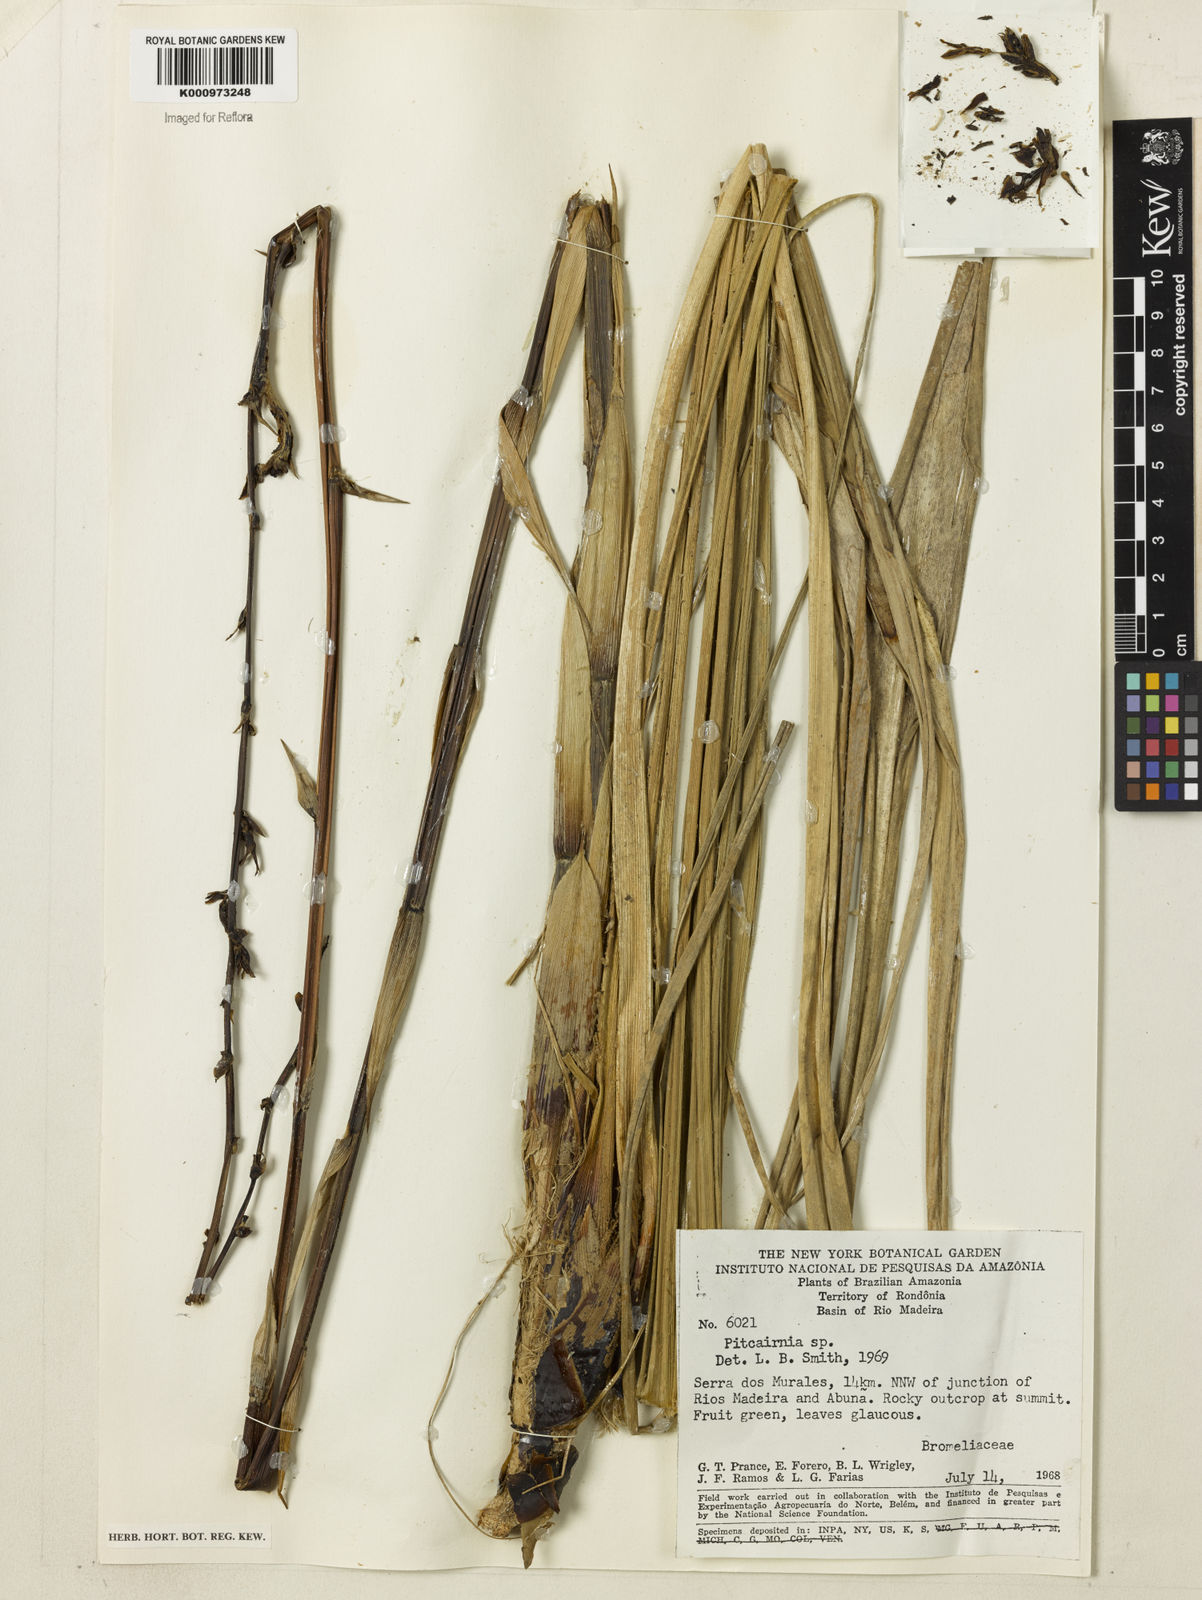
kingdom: Plantae
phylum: Tracheophyta
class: Liliopsida
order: Poales
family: Bromeliaceae
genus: Pitcairnia
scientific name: Pitcairnia
